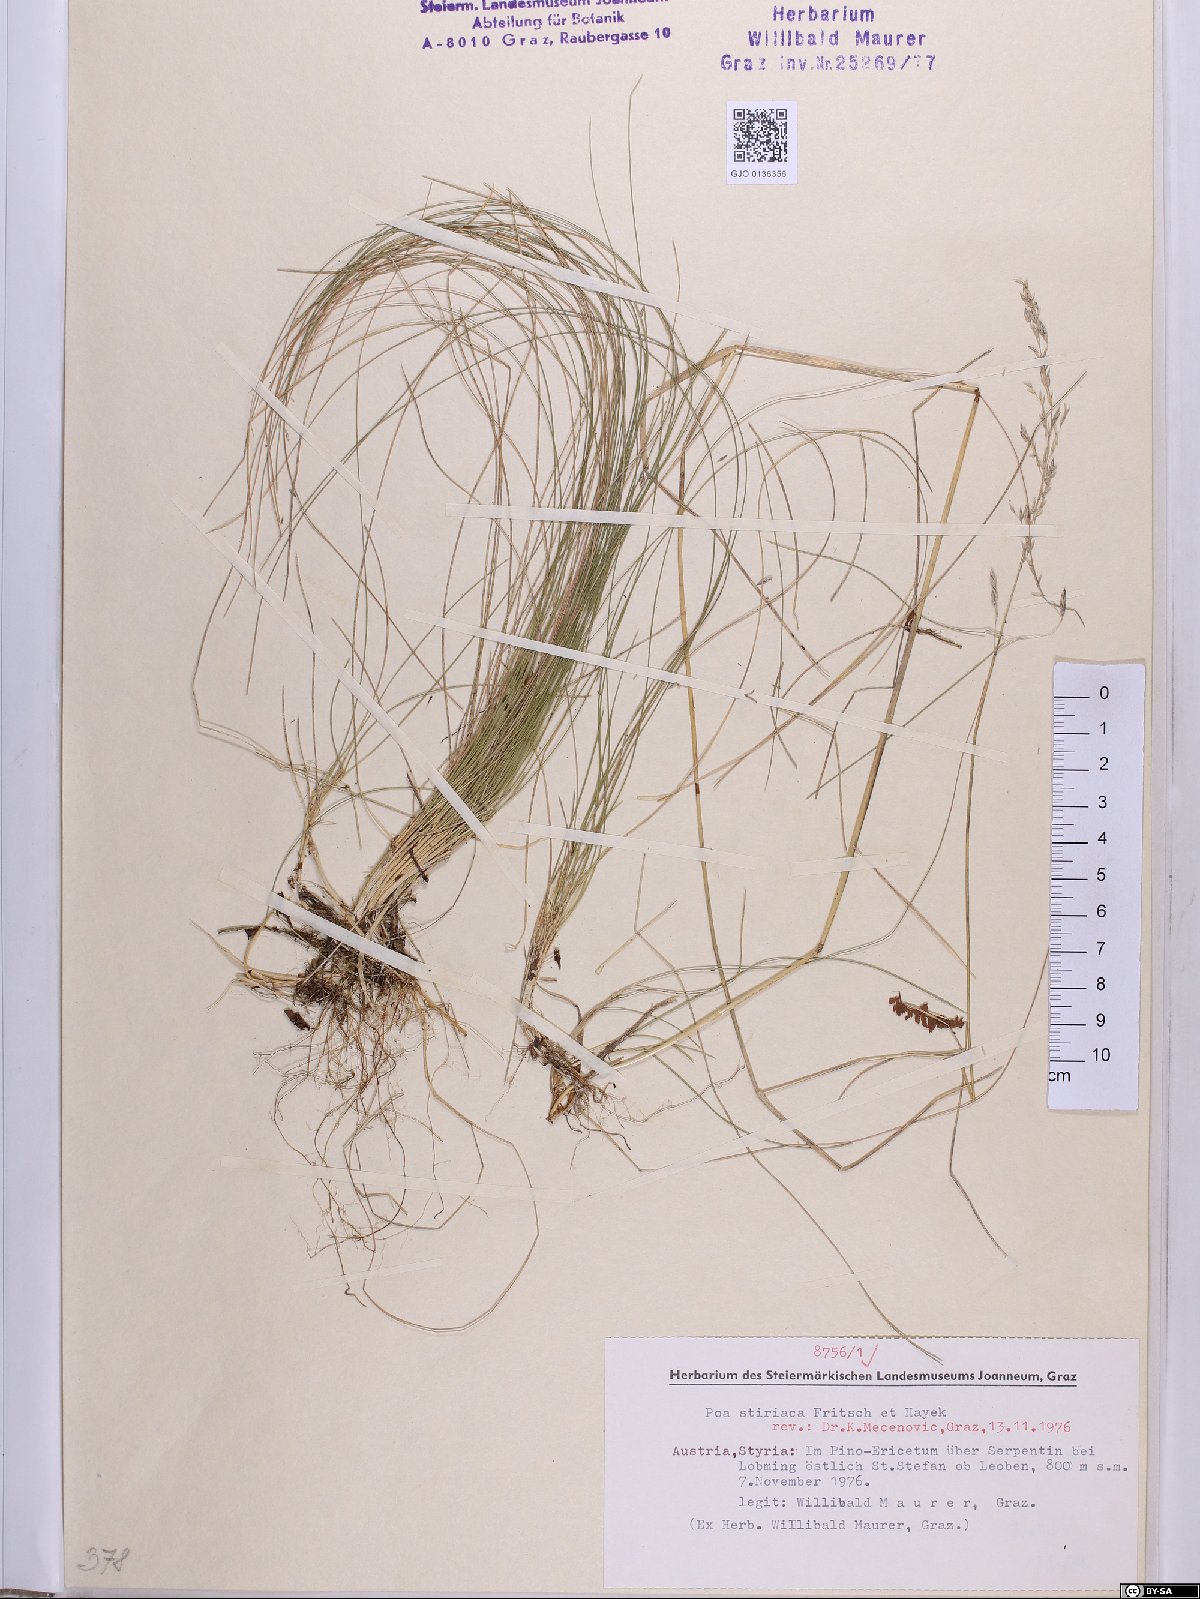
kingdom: Plantae
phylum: Tracheophyta
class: Liliopsida
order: Poales
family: Poaceae
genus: Poa
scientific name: Poa stiriaca
